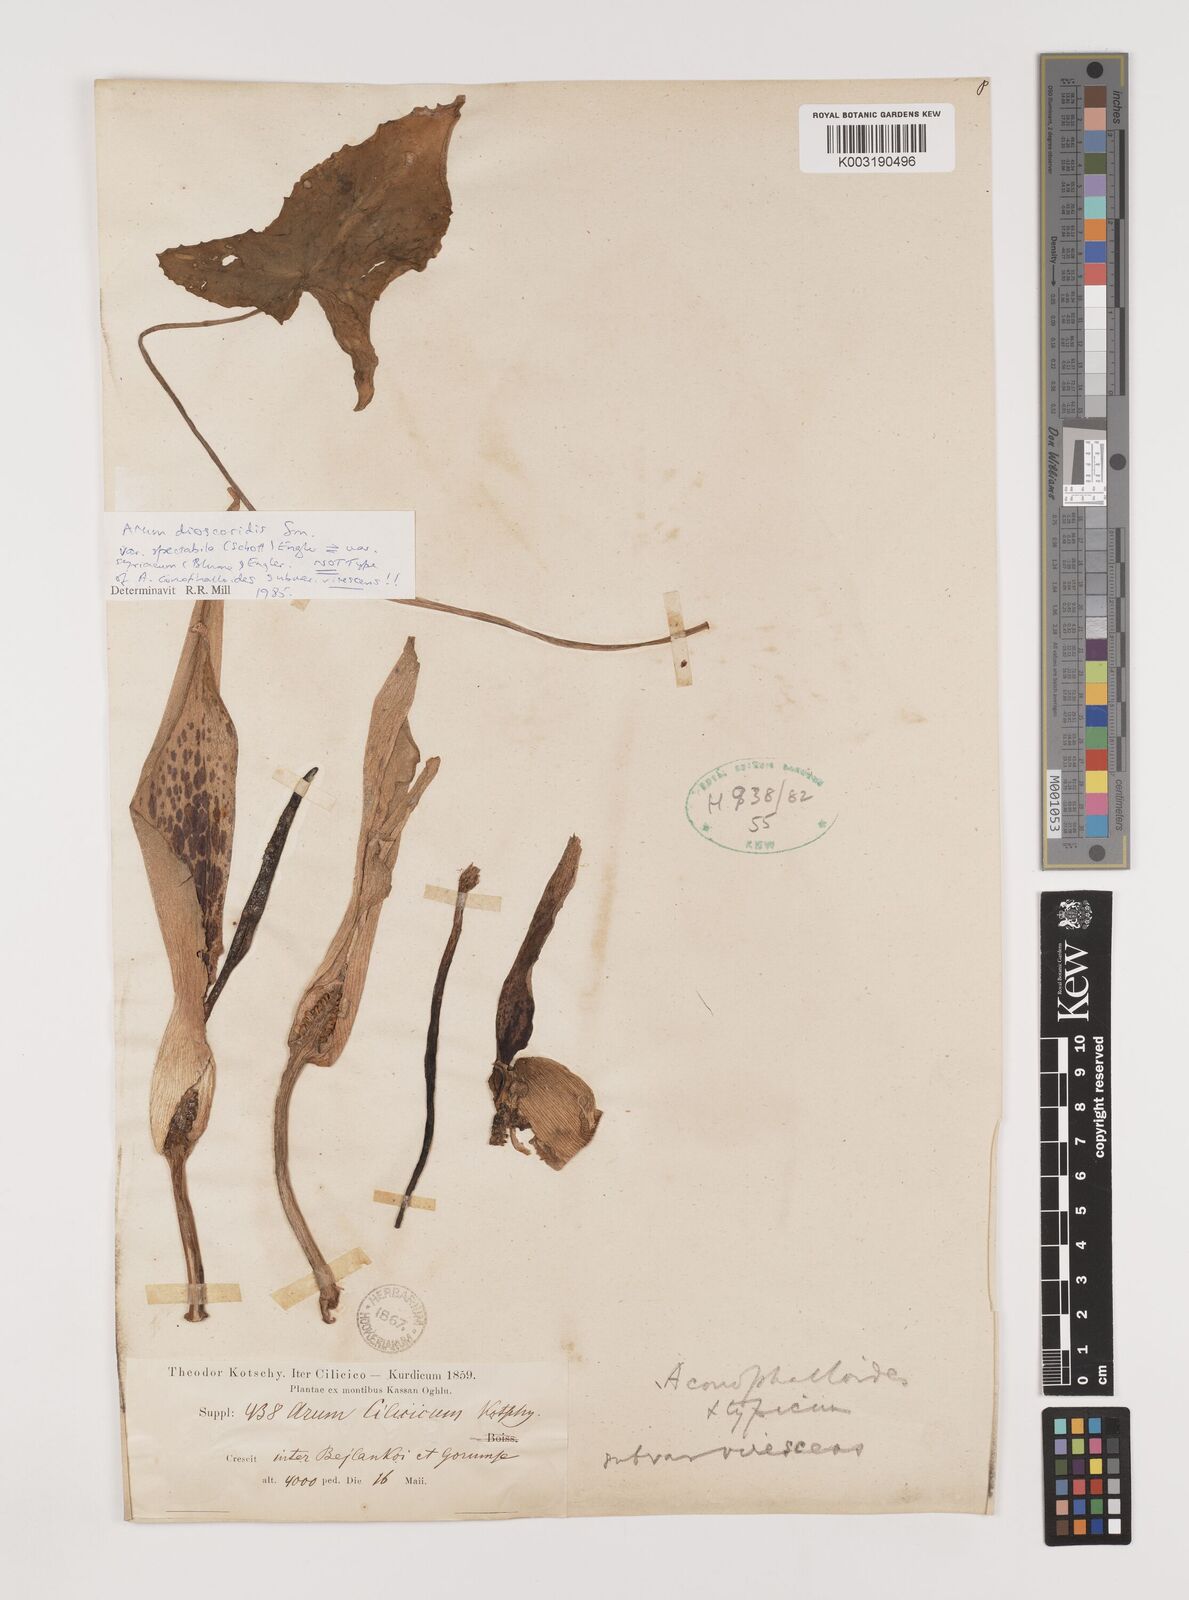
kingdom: Plantae
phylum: Tracheophyta
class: Liliopsida
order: Alismatales
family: Araceae
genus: Arum
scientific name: Arum dioscoridis
